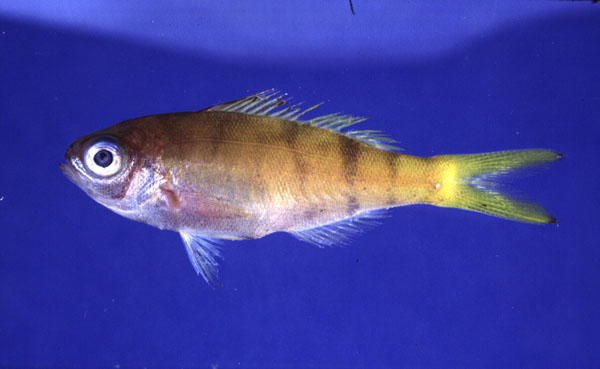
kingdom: Animalia
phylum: Chordata
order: Perciformes
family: Lutjanidae
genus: Paracaesio
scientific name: Paracaesio xanthura
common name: Yellowtail blue snapper
